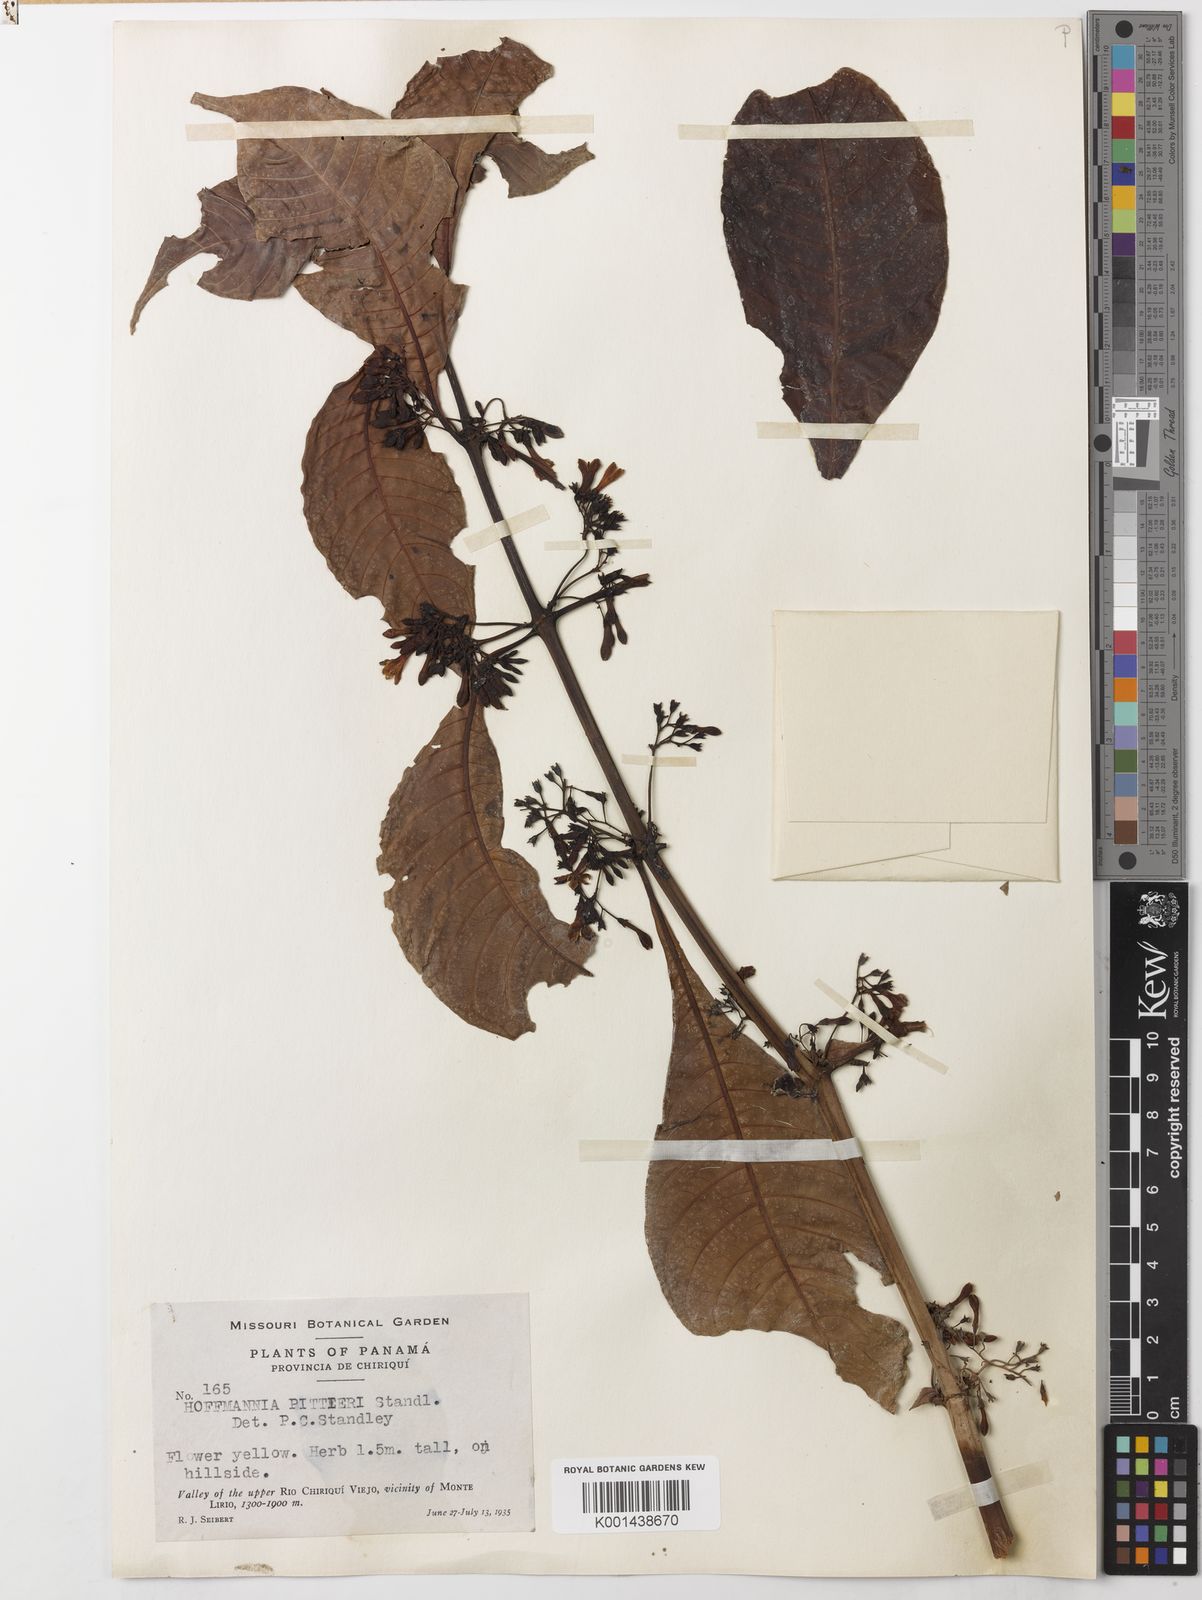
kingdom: Plantae
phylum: Tracheophyta
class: Magnoliopsida
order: Gentianales
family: Rubiaceae
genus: Hoffmannia
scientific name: Hoffmannia pittieri
